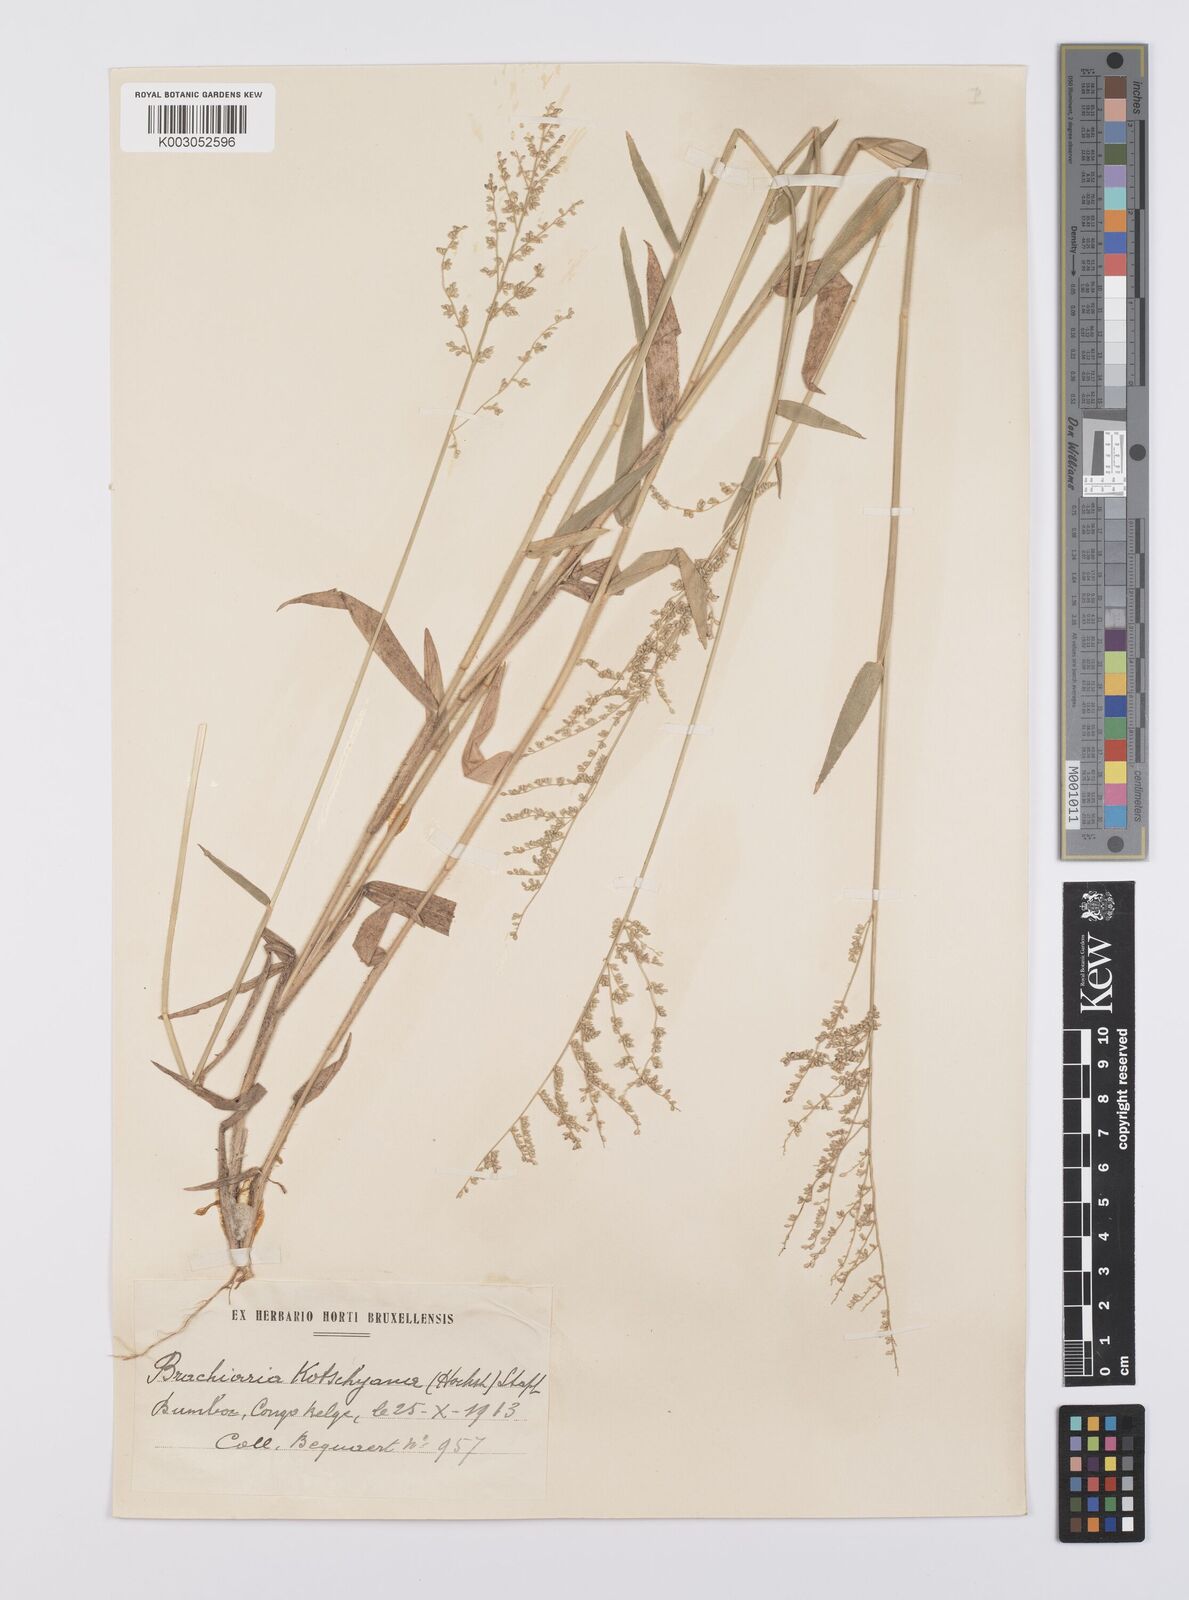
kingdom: Plantae
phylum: Tracheophyta
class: Liliopsida
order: Poales
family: Poaceae
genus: Urochloa
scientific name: Urochloa comata
